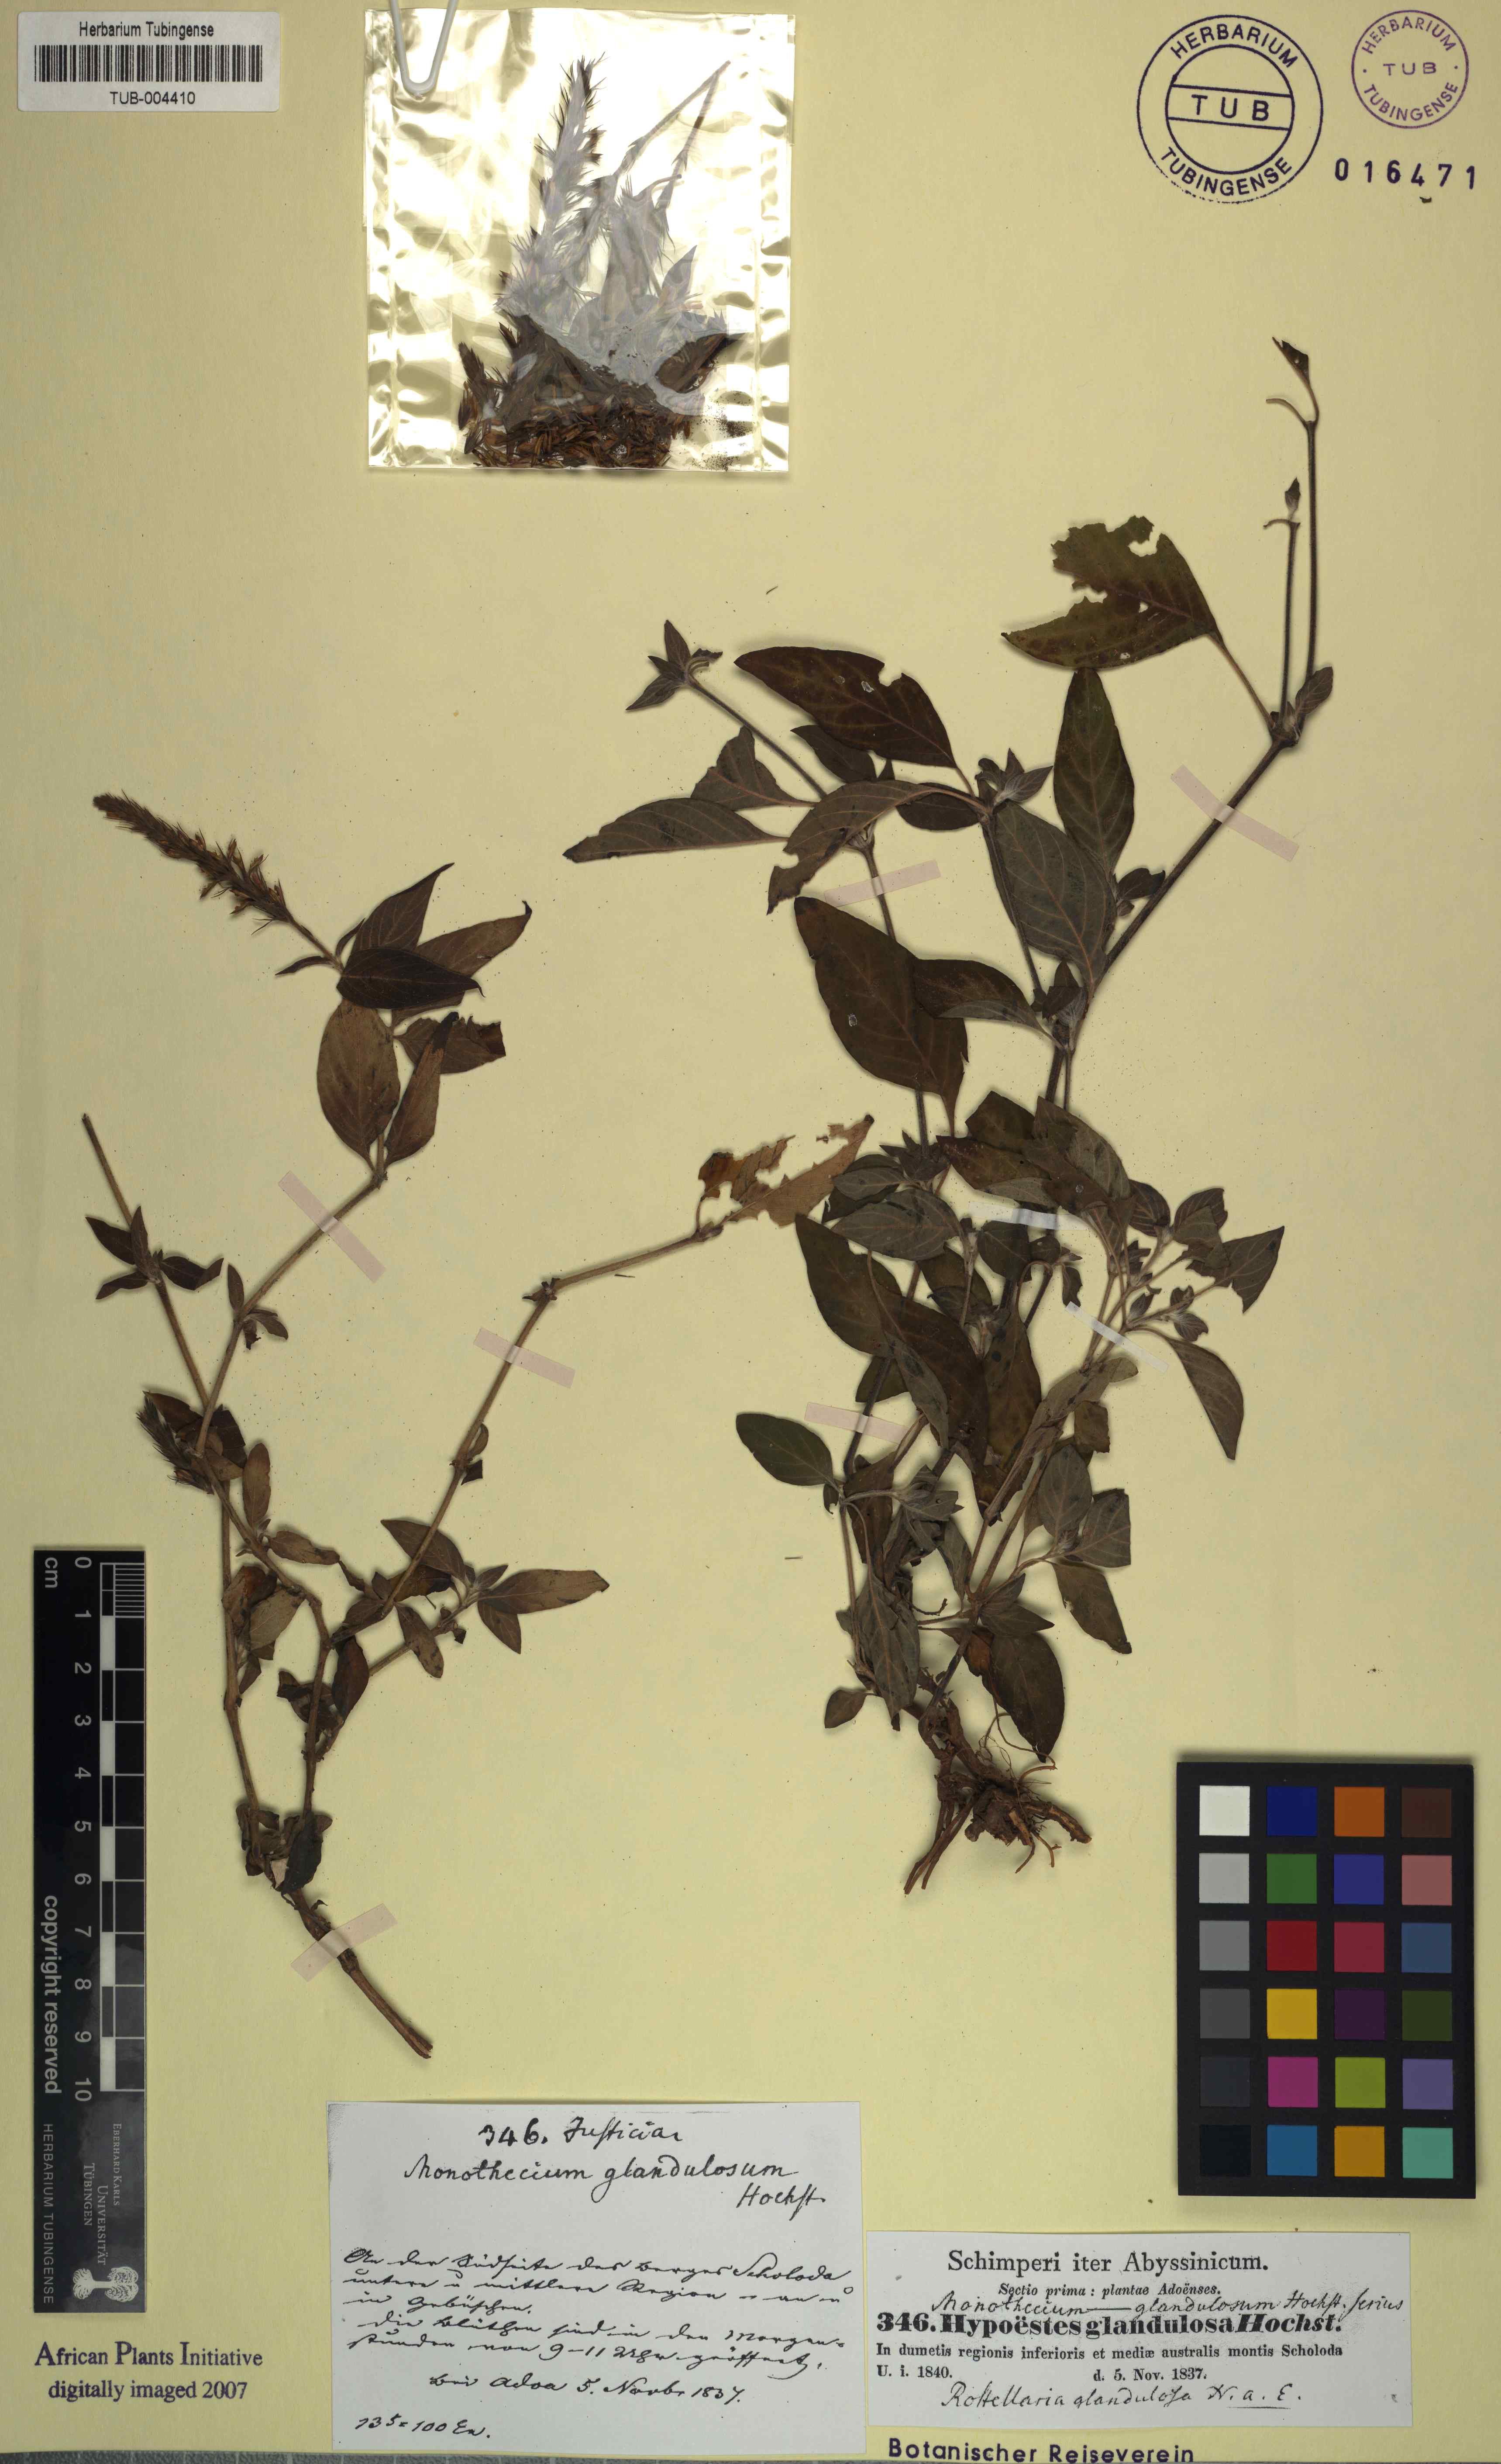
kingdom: Plantae
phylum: Tracheophyta
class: Magnoliopsida
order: Lamiales
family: Acanthaceae
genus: Monothecium
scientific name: Monothecium glandulosum
